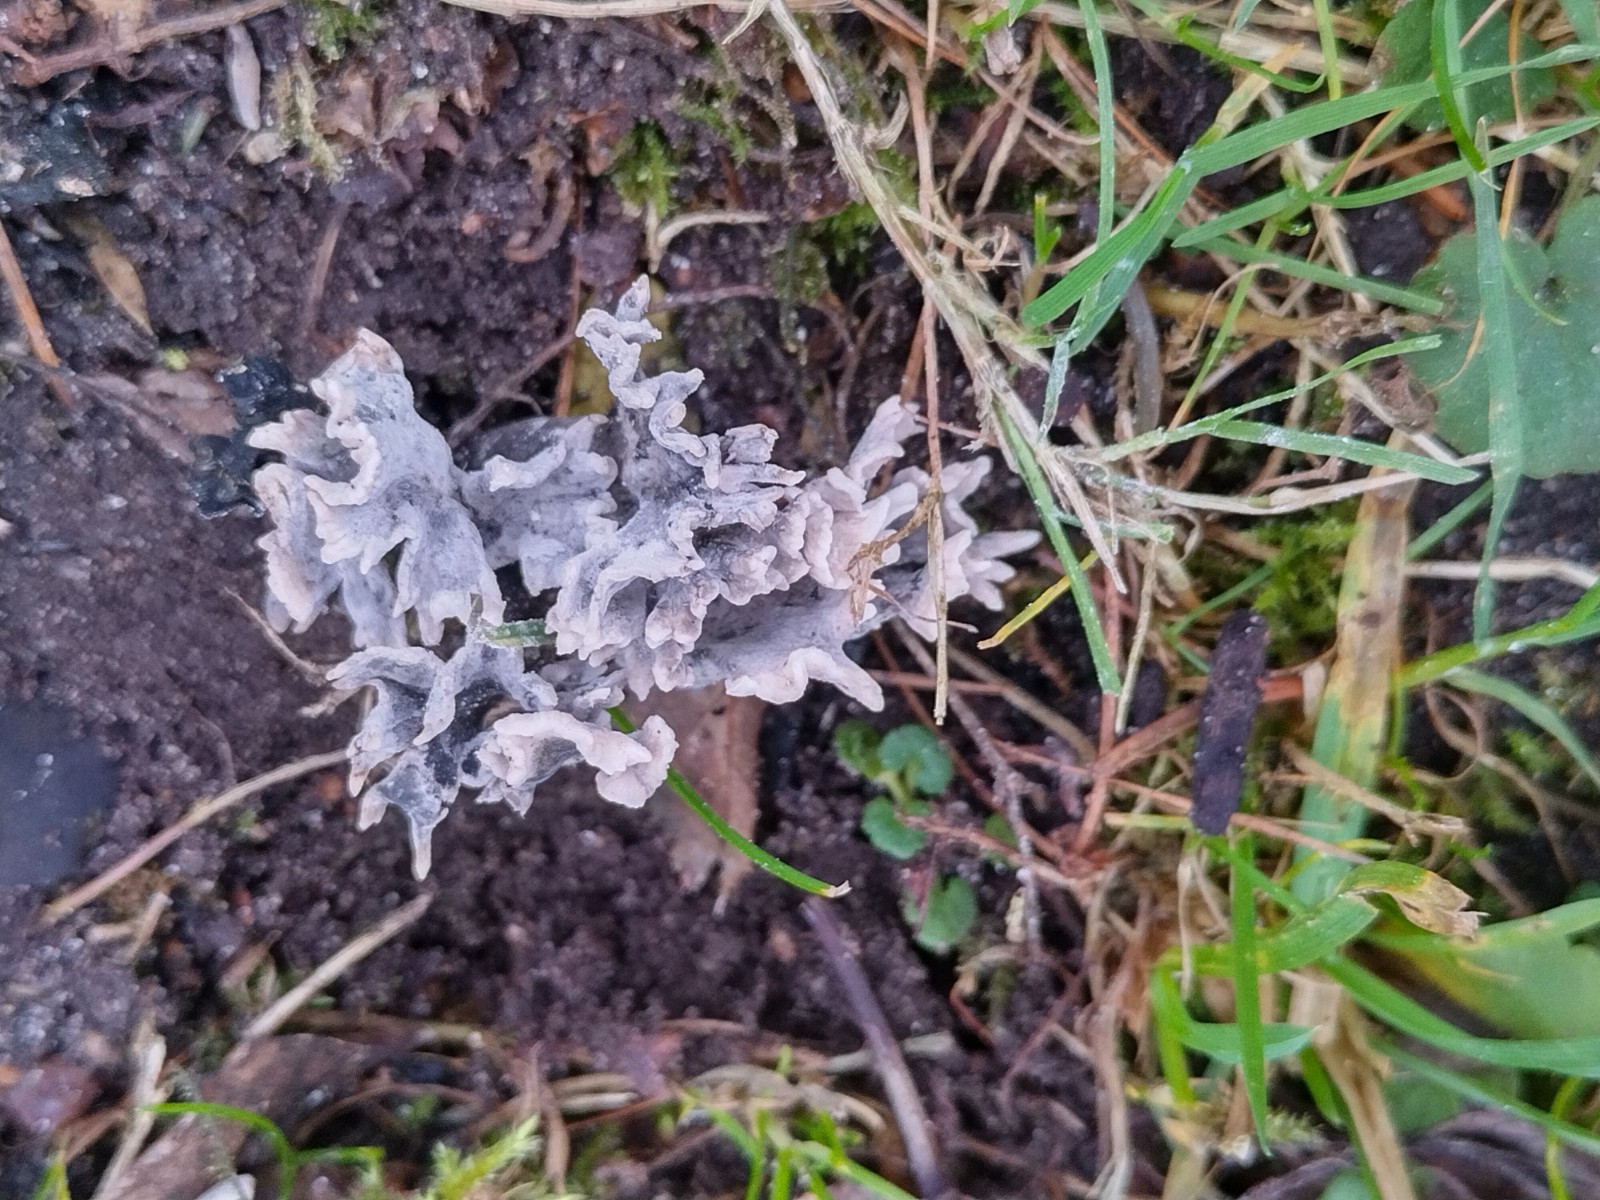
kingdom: Fungi
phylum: Ascomycota
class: Sordariomycetes
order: Xylariales
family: Xylariaceae
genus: Xylaria
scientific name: Xylaria hypoxylon
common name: grenet stødsvamp
